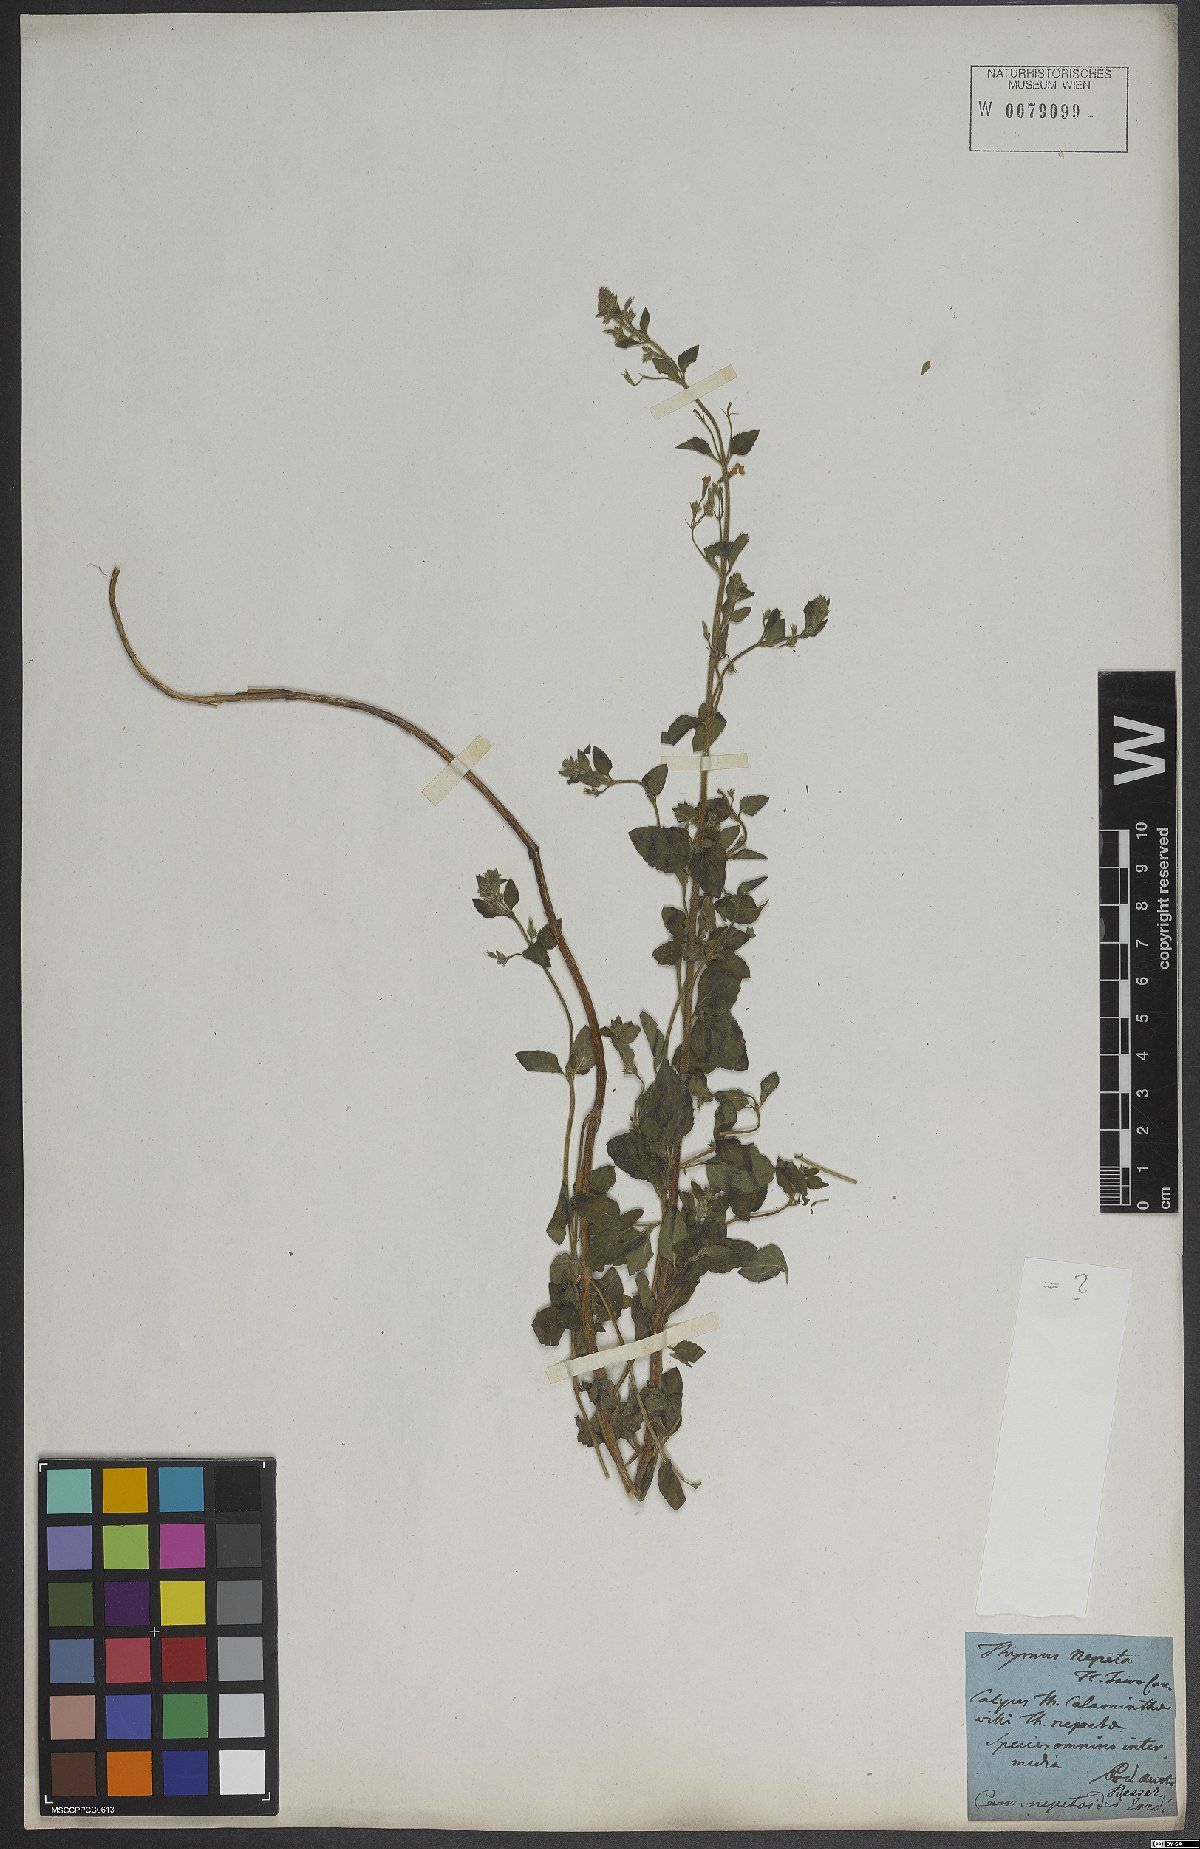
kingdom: Plantae
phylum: Tracheophyta
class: Magnoliopsida
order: Lamiales
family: Lamiaceae
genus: Clinopodium
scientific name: Clinopodium nepeta
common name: Lesser calamint
